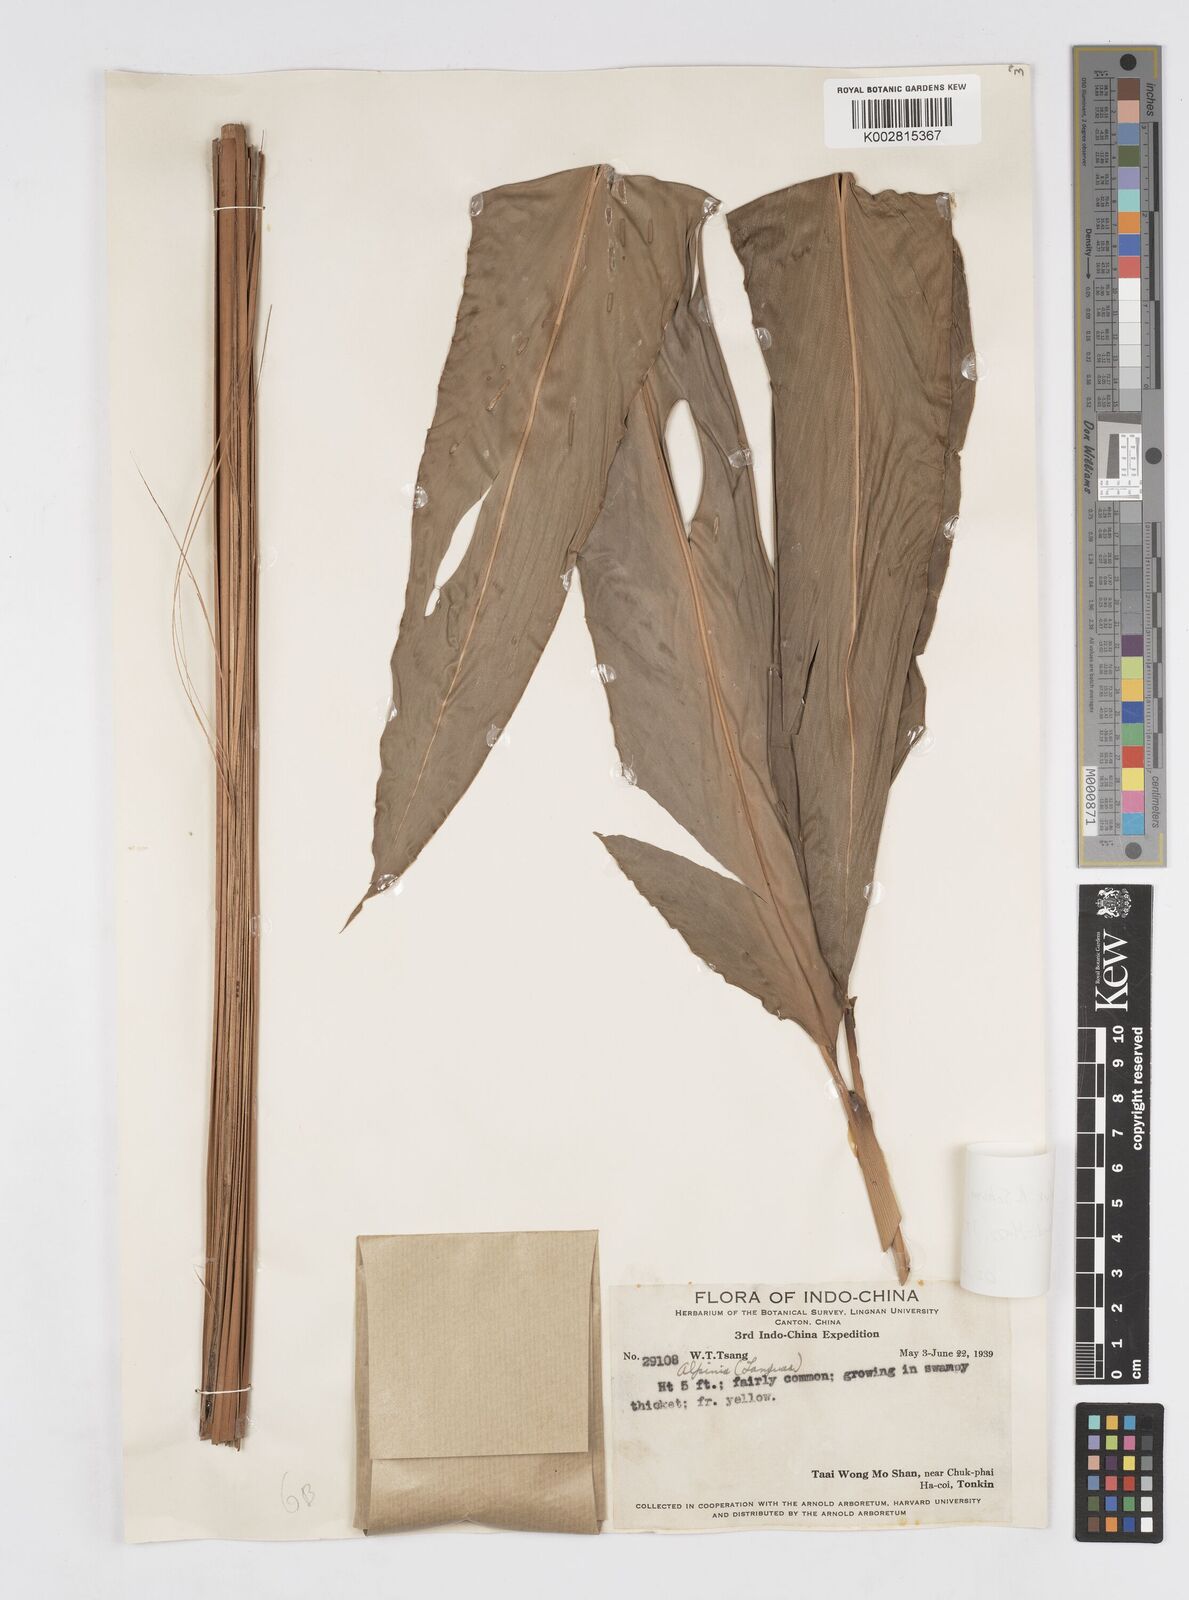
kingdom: Plantae
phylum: Tracheophyta
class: Liliopsida
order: Zingiberales
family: Zingiberaceae
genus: Alpinia
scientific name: Alpinia roxburghii
